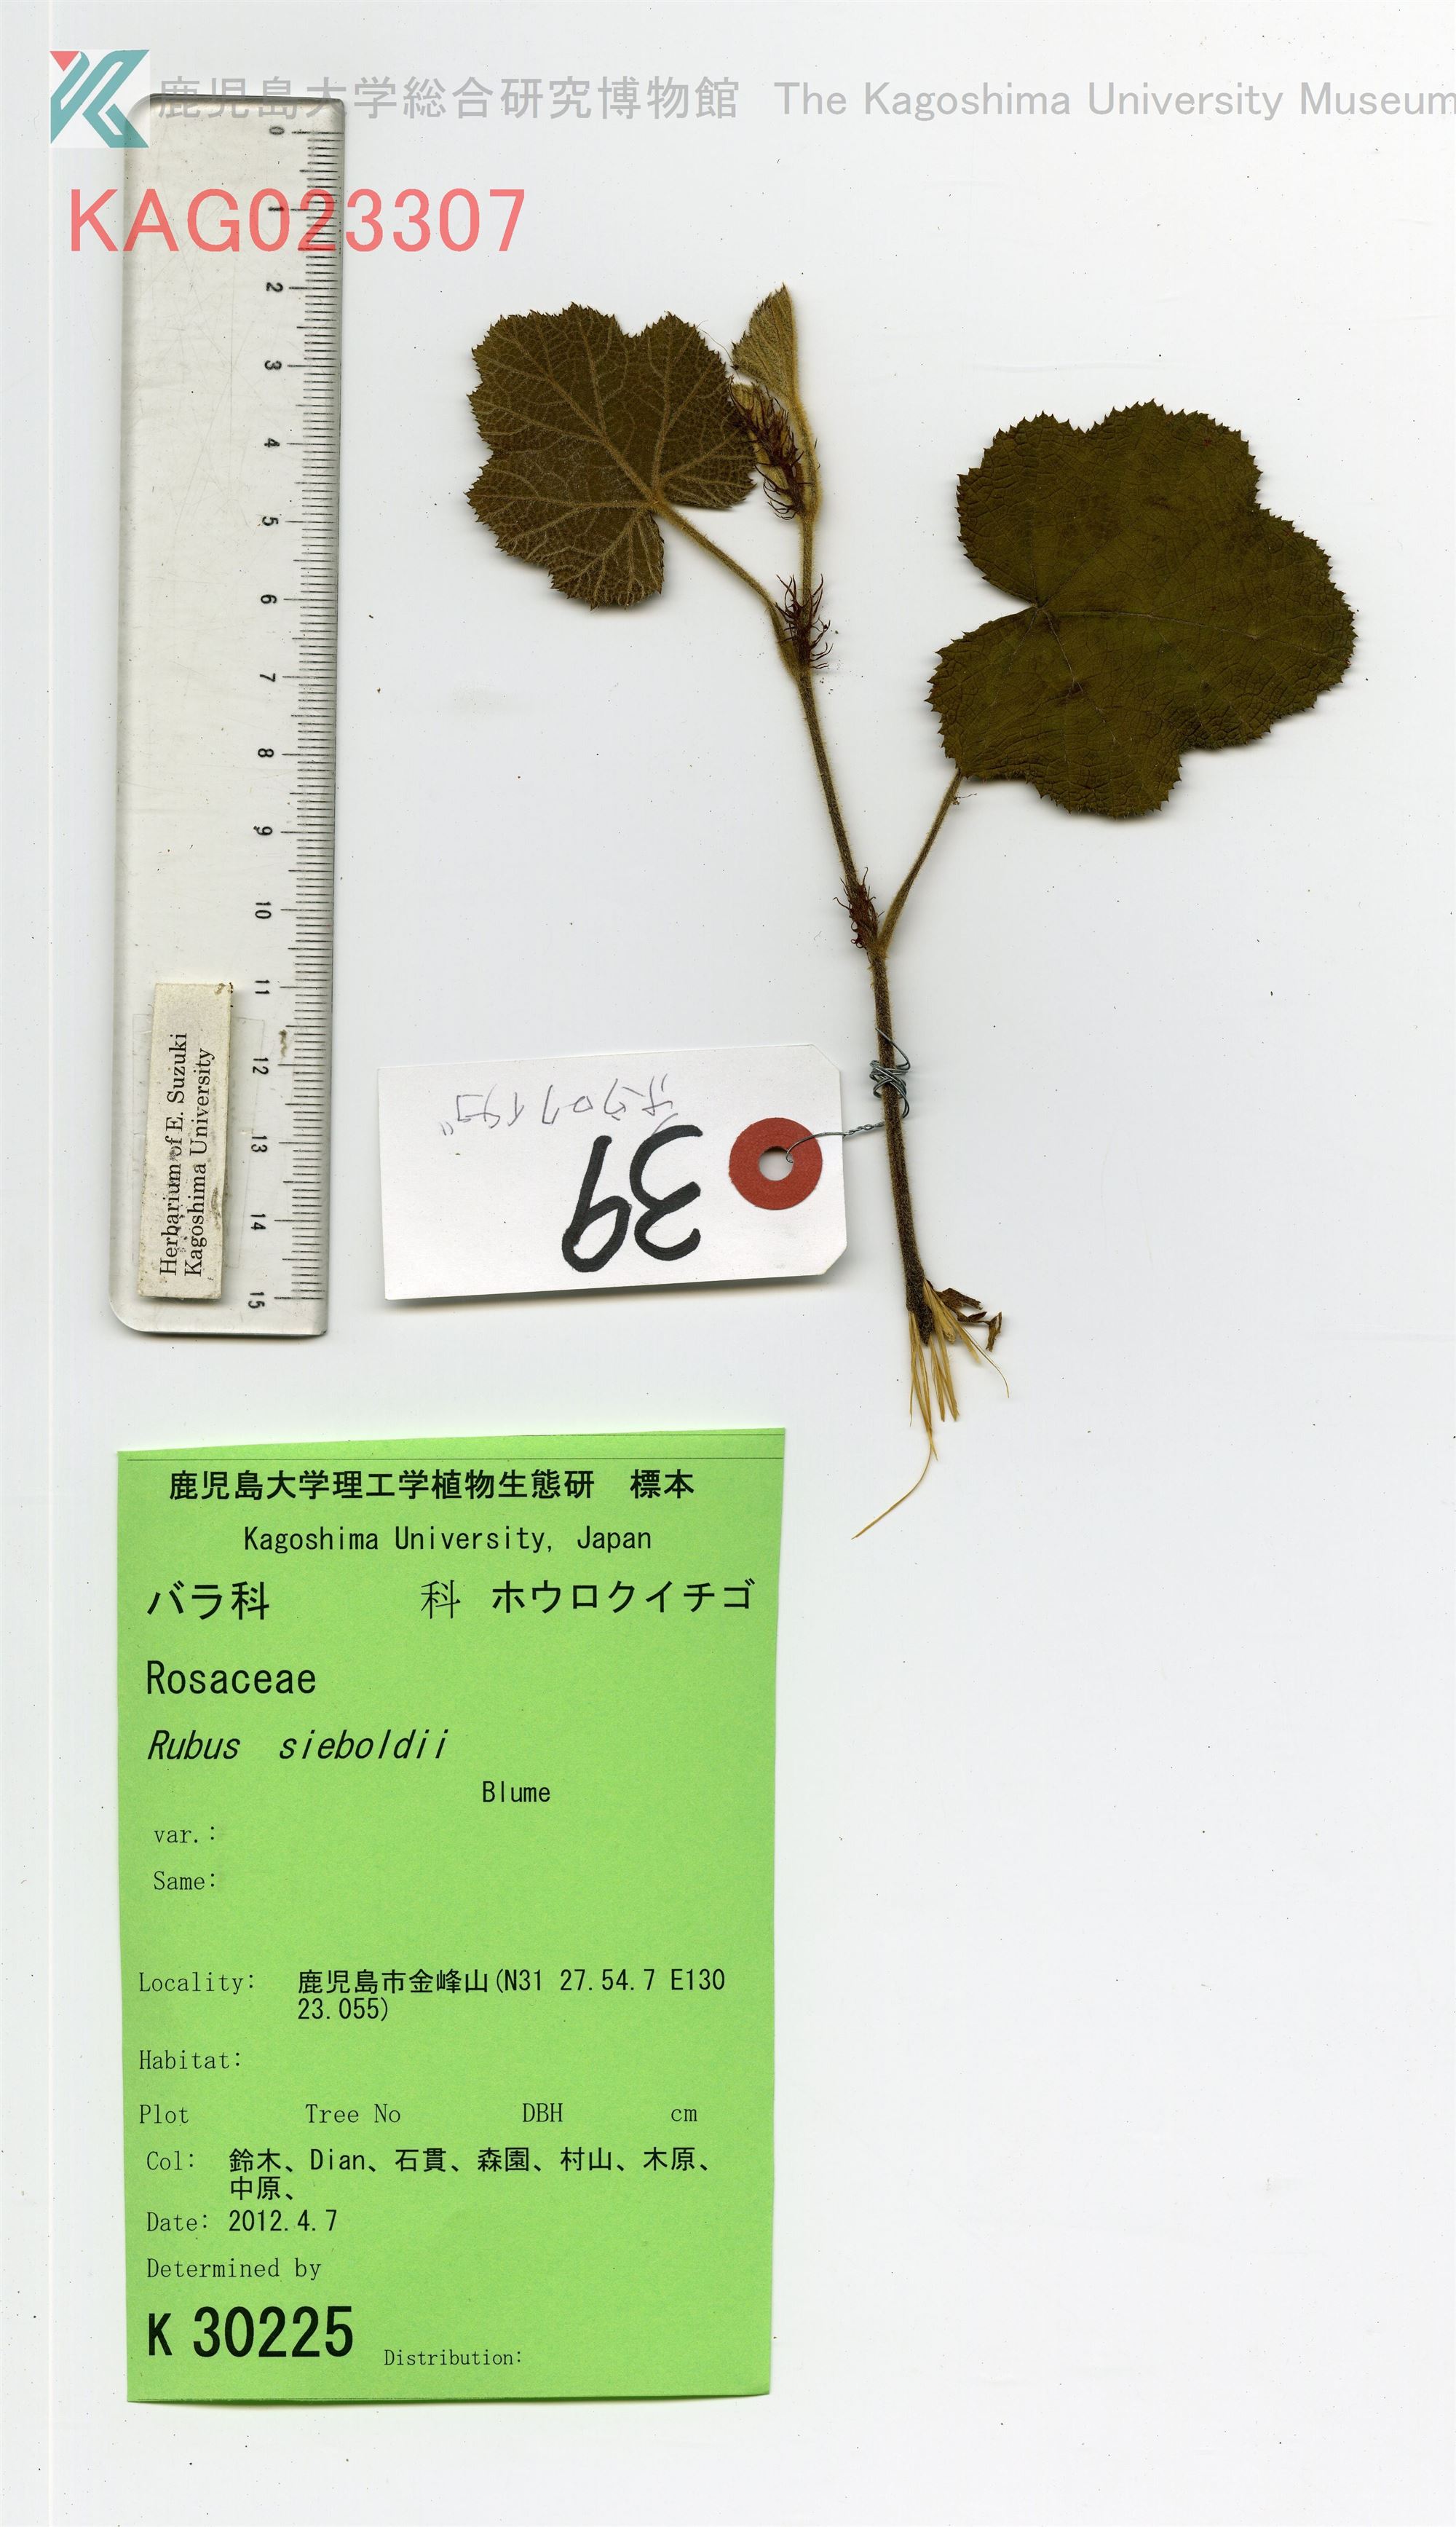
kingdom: Plantae
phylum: Tracheophyta
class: Magnoliopsida
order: Rosales
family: Rosaceae
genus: Rubus
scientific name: Rubus sieboldii
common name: Molucca raspberry
